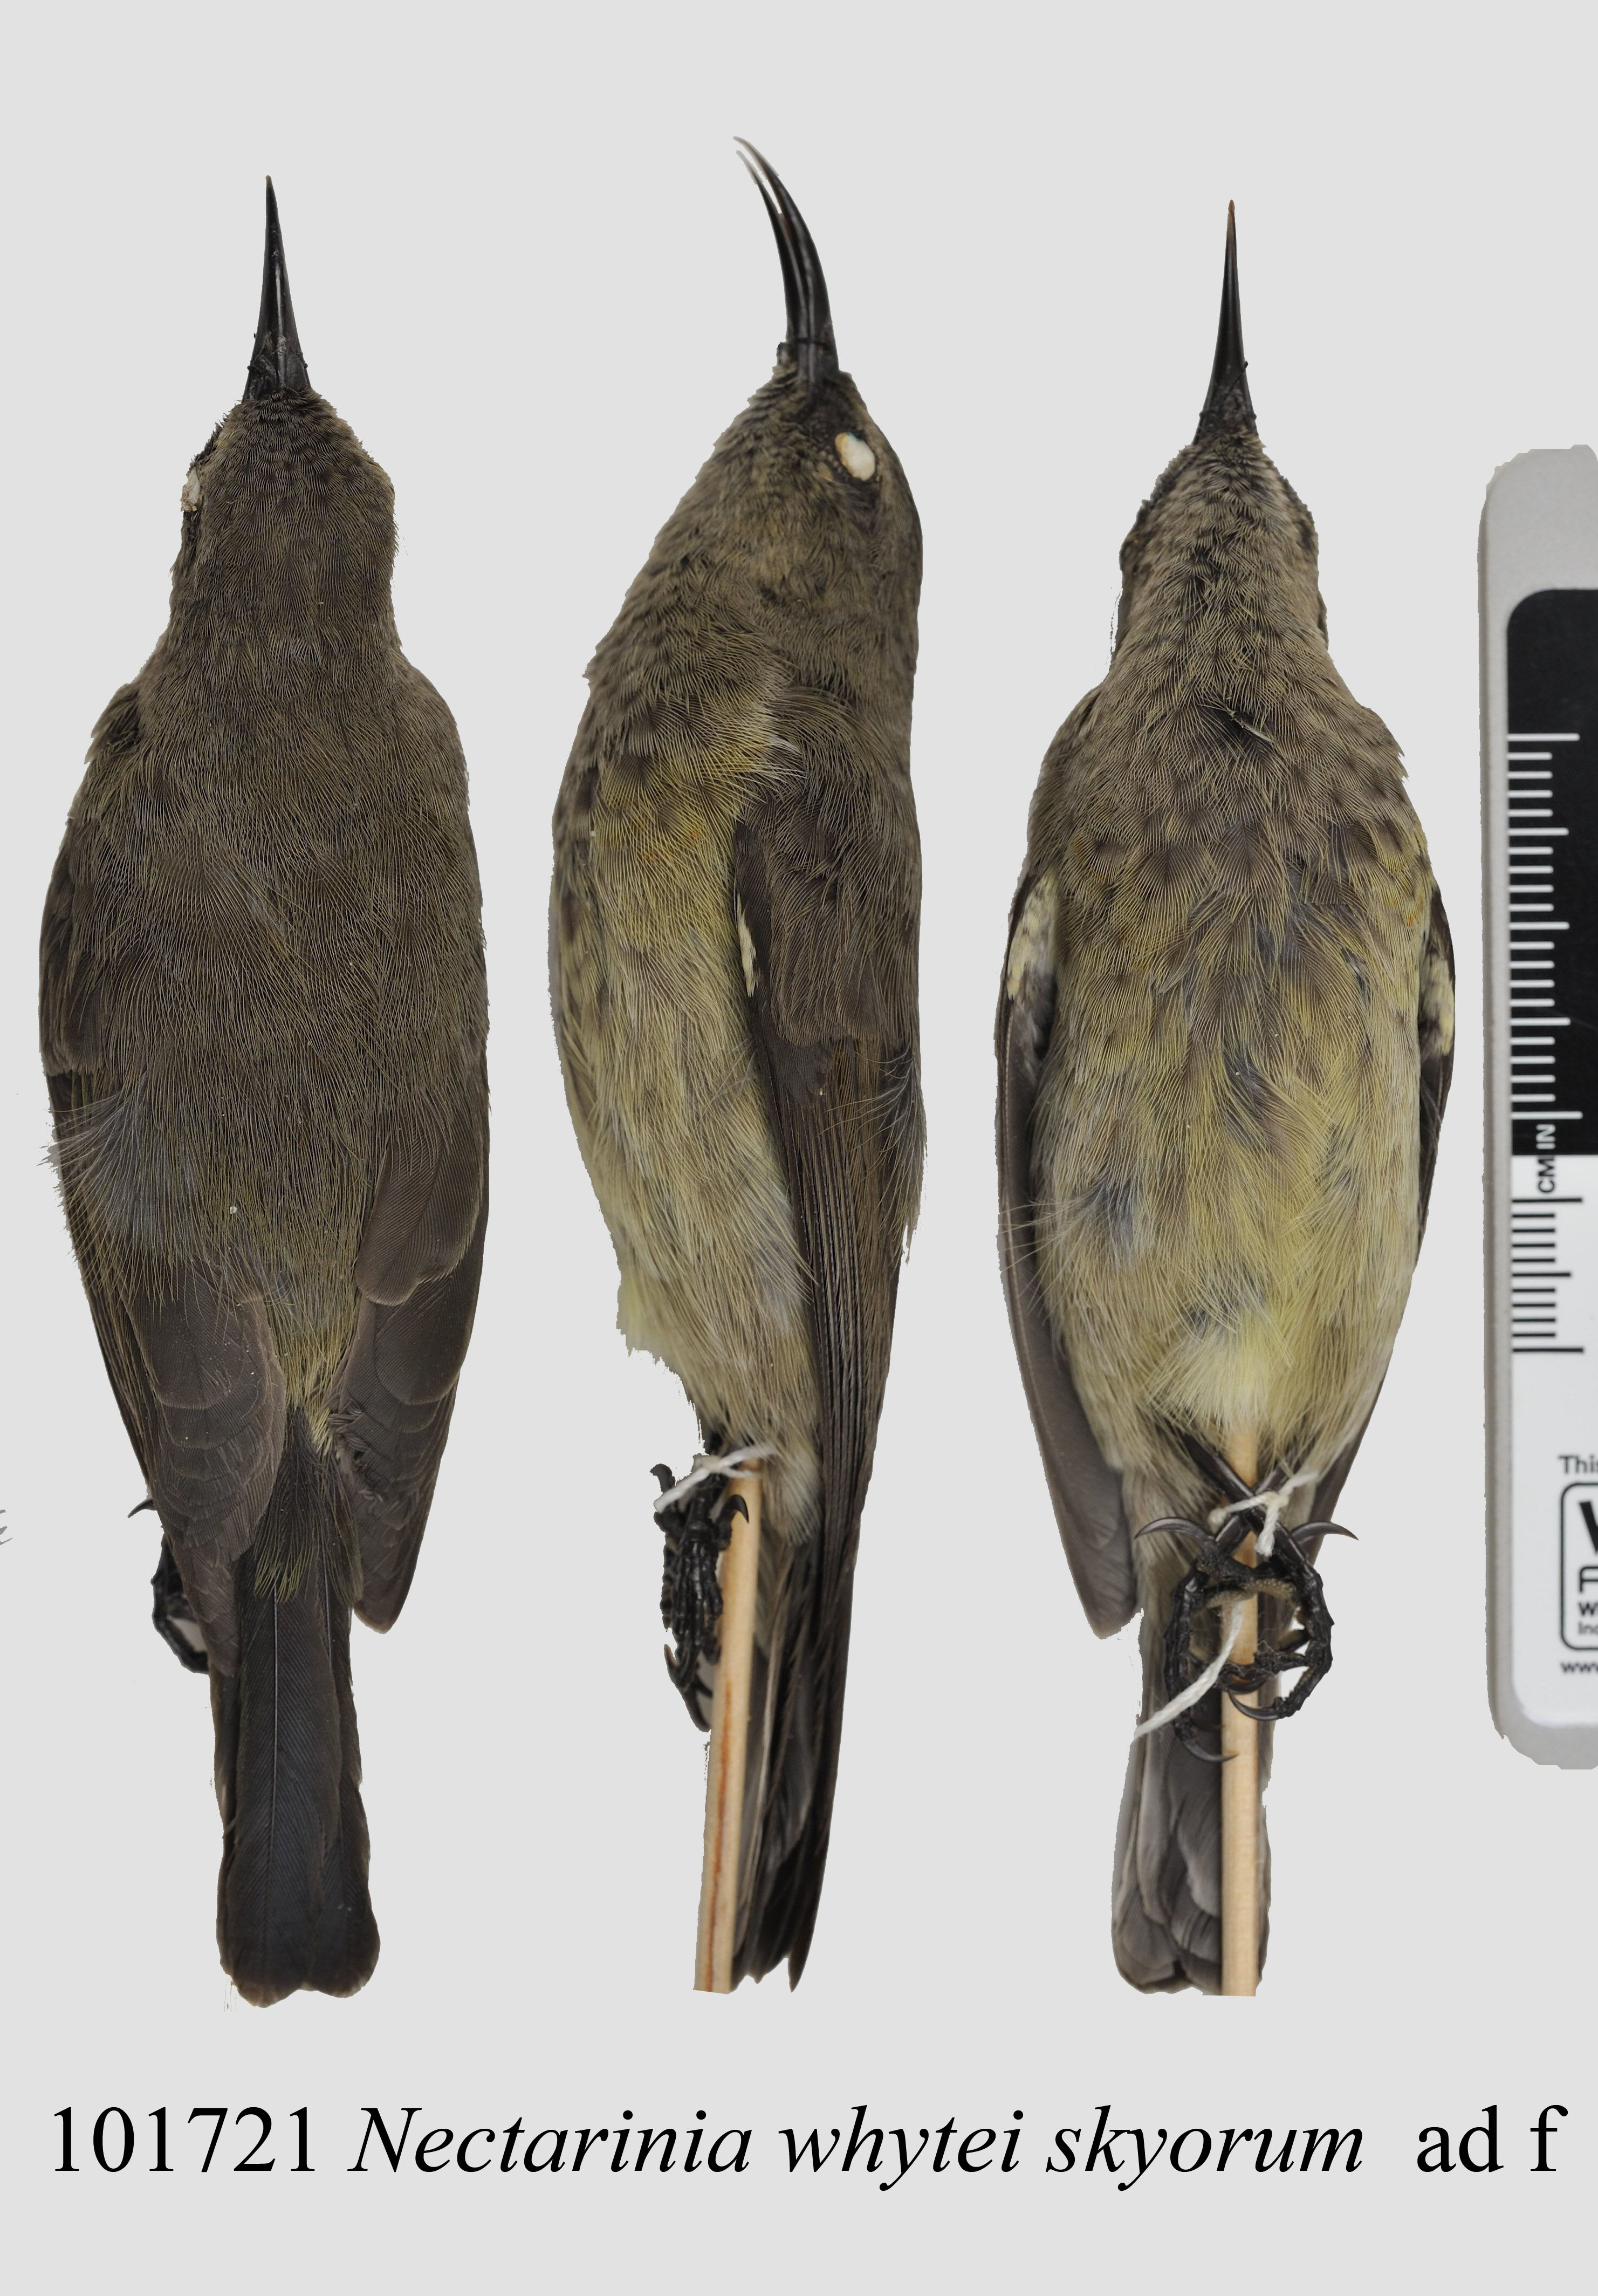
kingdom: Animalia
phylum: Chordata
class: Aves
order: Passeriformes
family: Nectariniidae
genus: Cinnyris
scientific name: Cinnyris ludovicensis
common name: Montane double-collared sunbird
